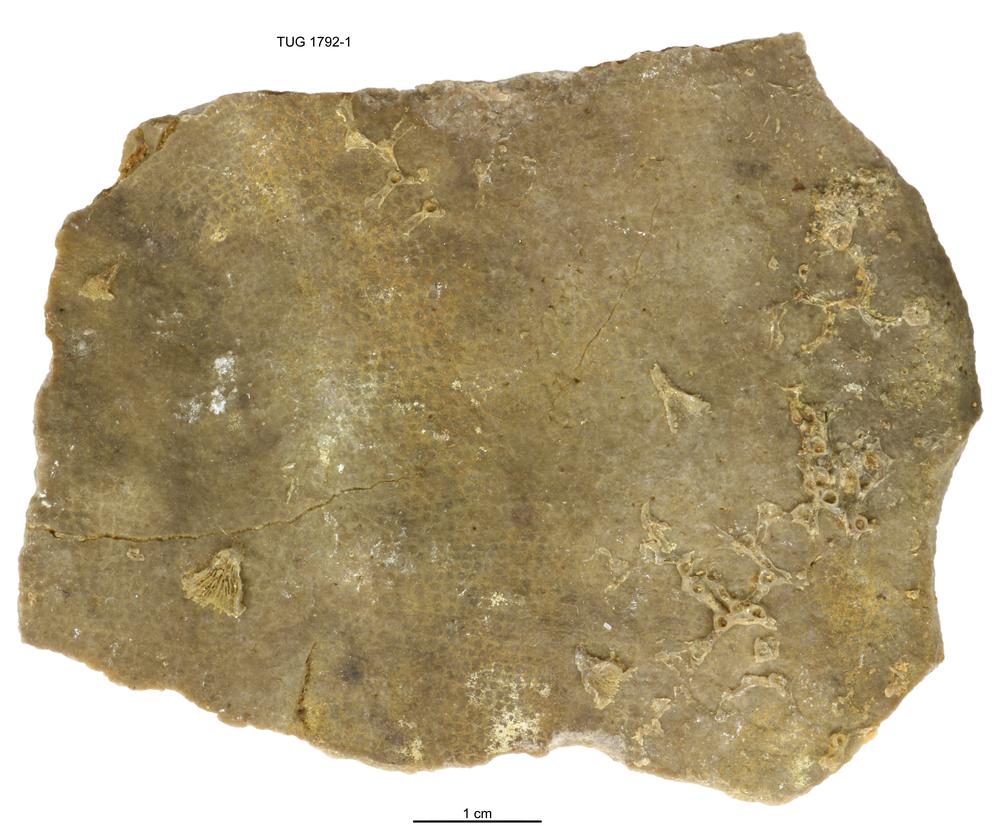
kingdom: Animalia
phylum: Porifera
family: Labechiidae
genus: Labechia
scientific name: Labechia Monticularia conferta
